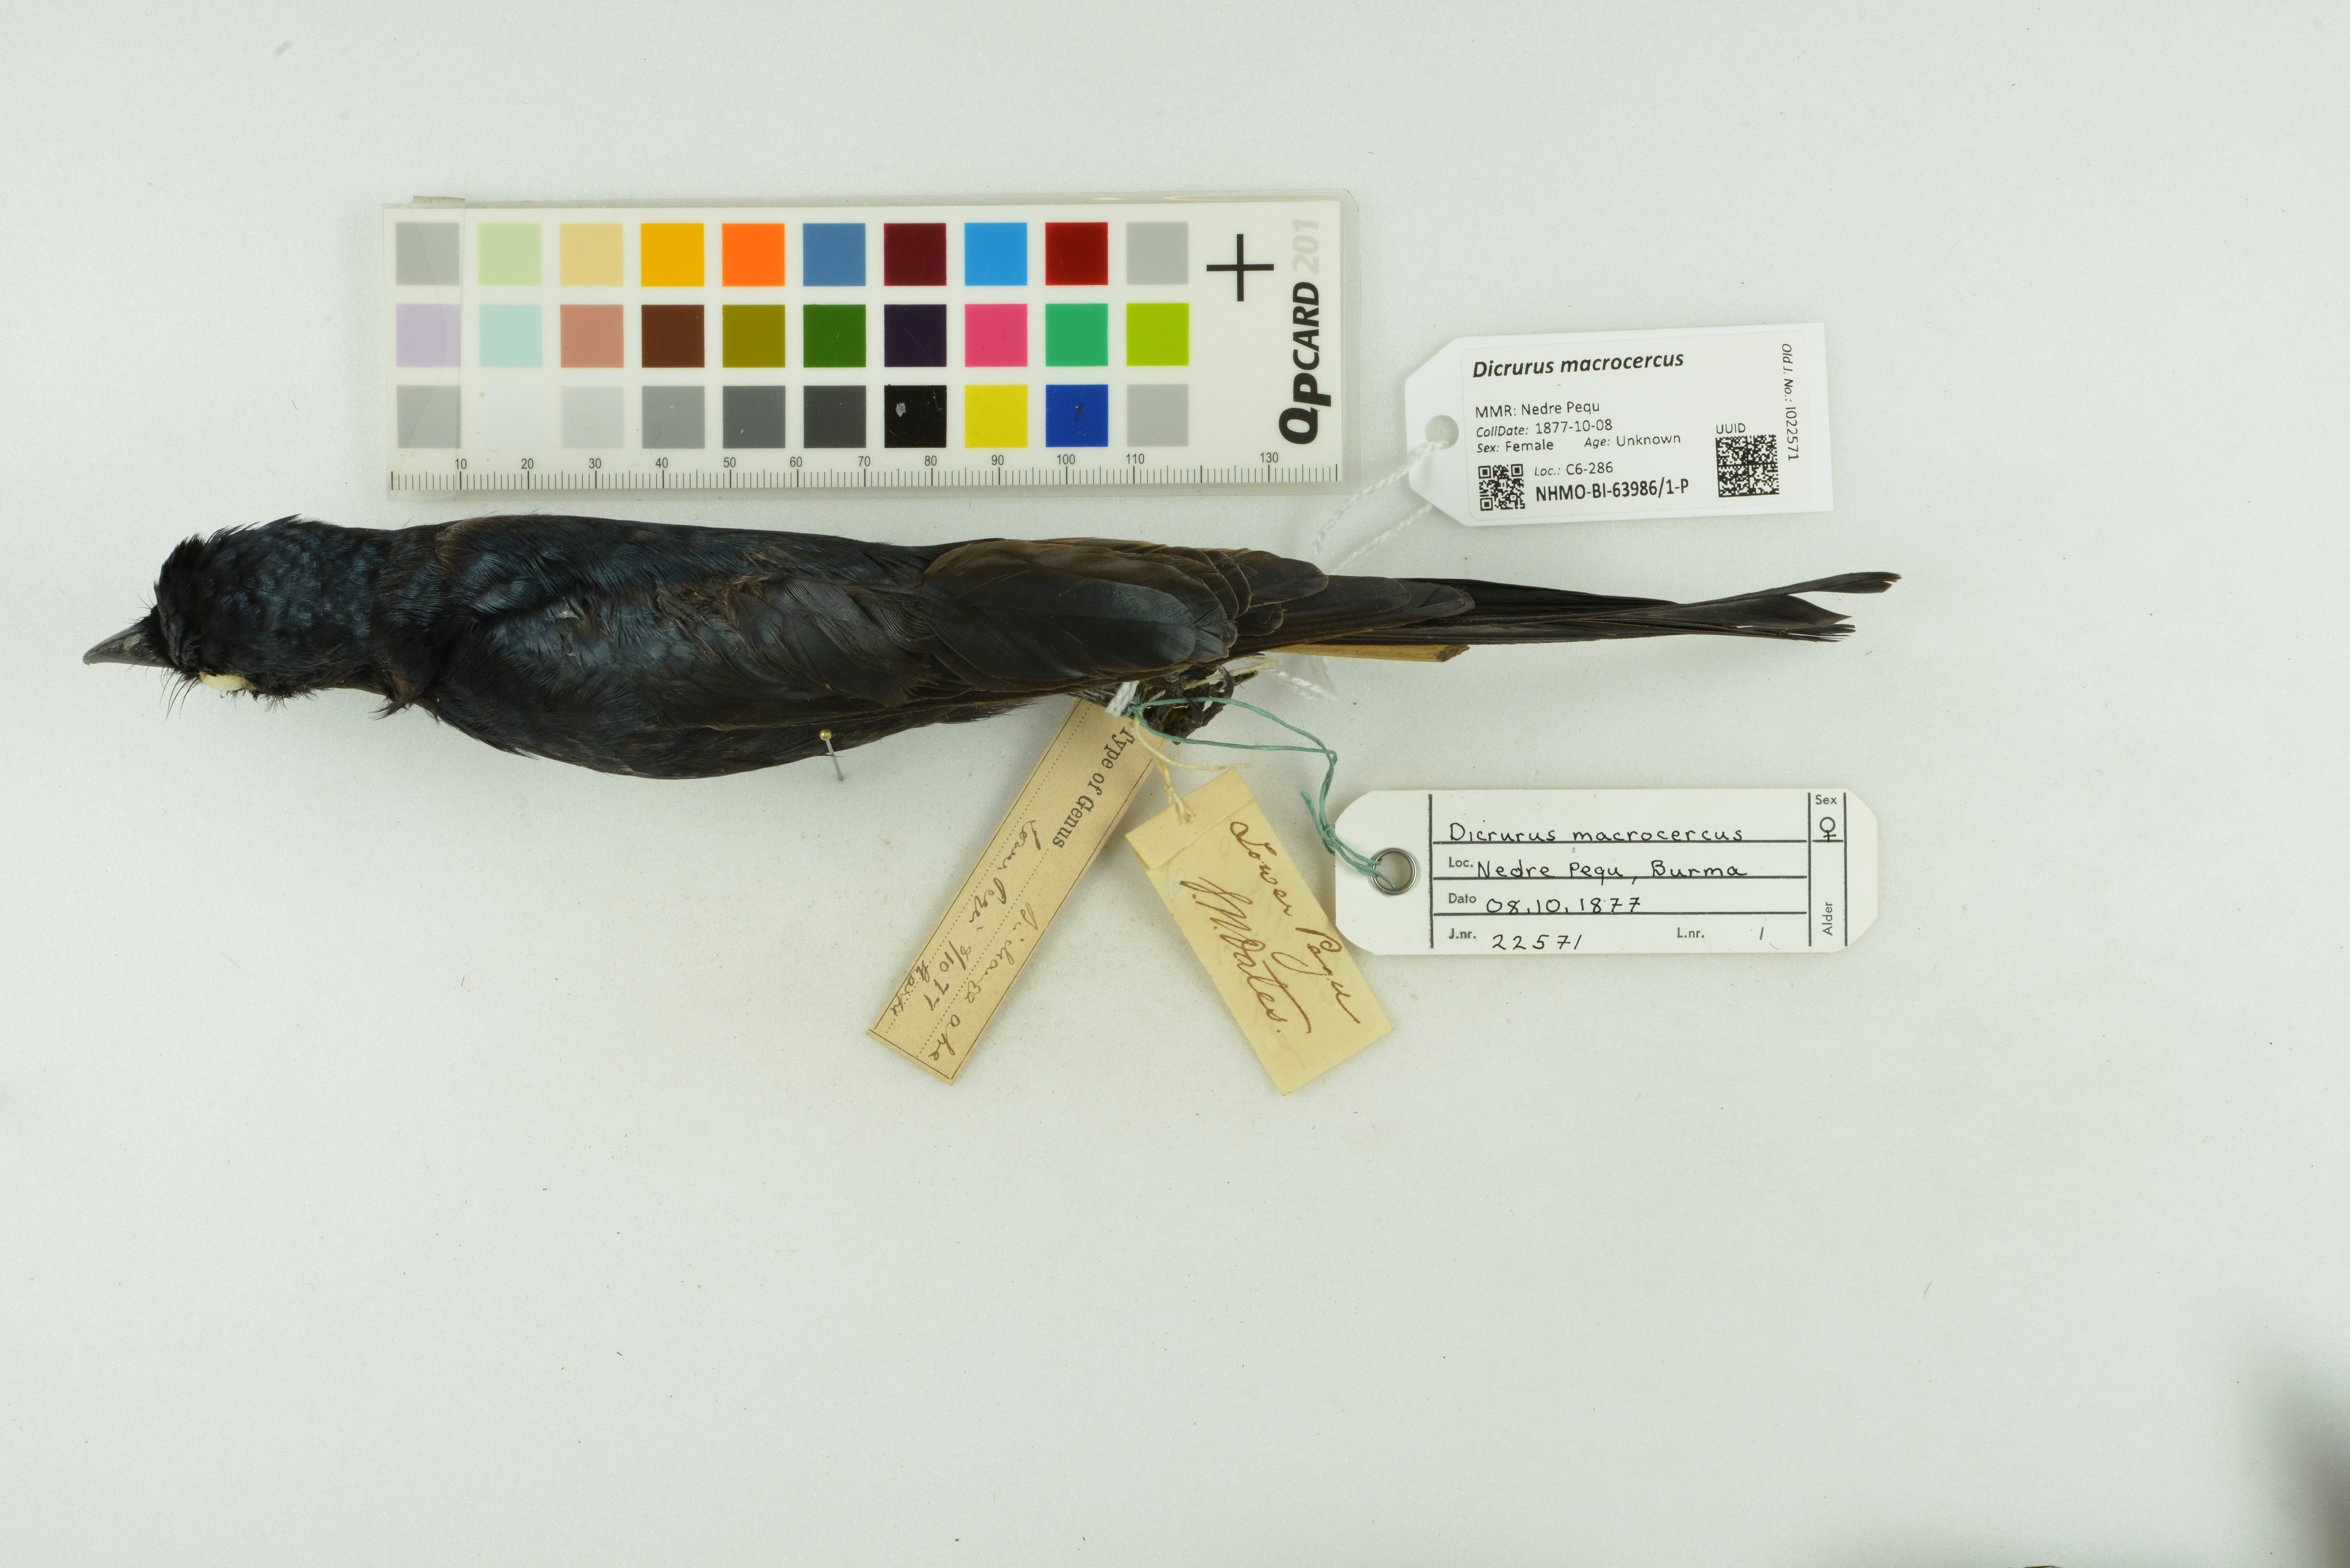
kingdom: Animalia
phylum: Chordata
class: Aves
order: Passeriformes
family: Dicruridae
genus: Dicrurus
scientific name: Dicrurus macrocercus
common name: Black drongo
